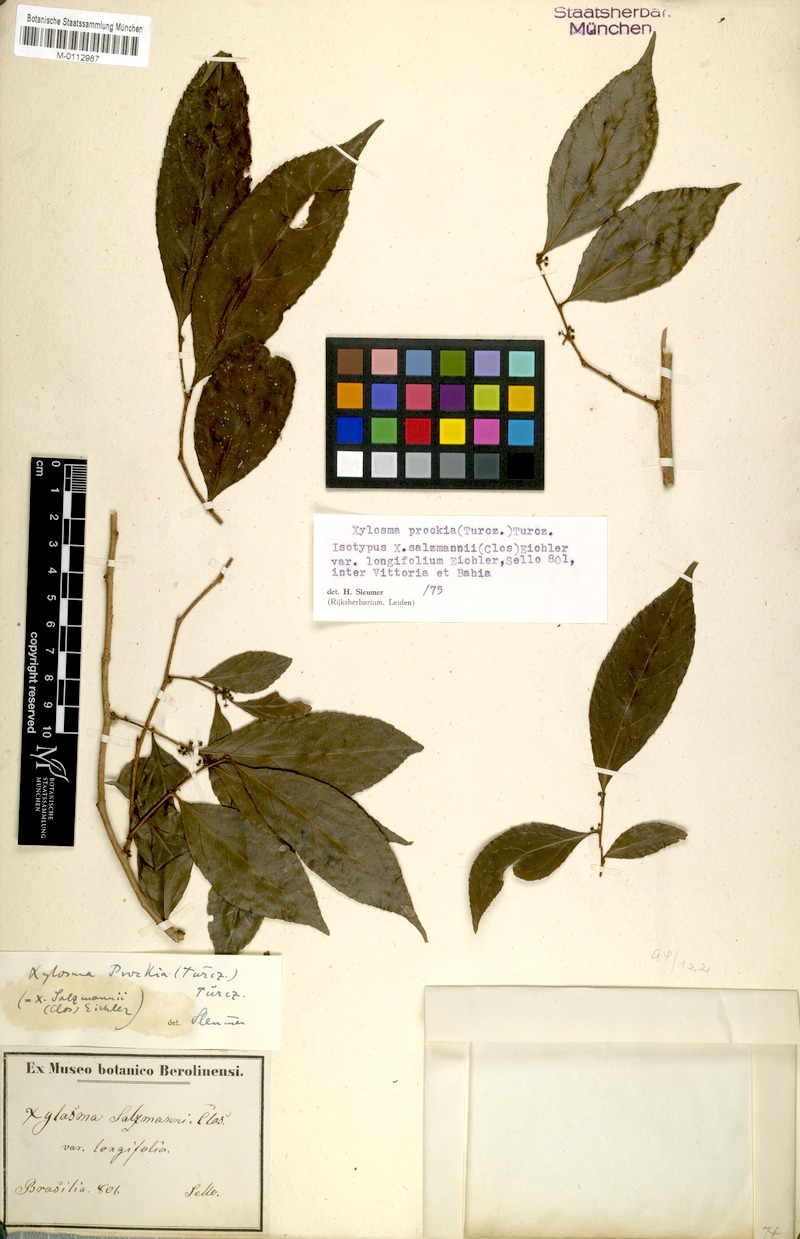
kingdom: Plantae
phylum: Tracheophyta
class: Magnoliopsida
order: Malpighiales
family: Salicaceae
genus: Xylosma
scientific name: Xylosma prockia
